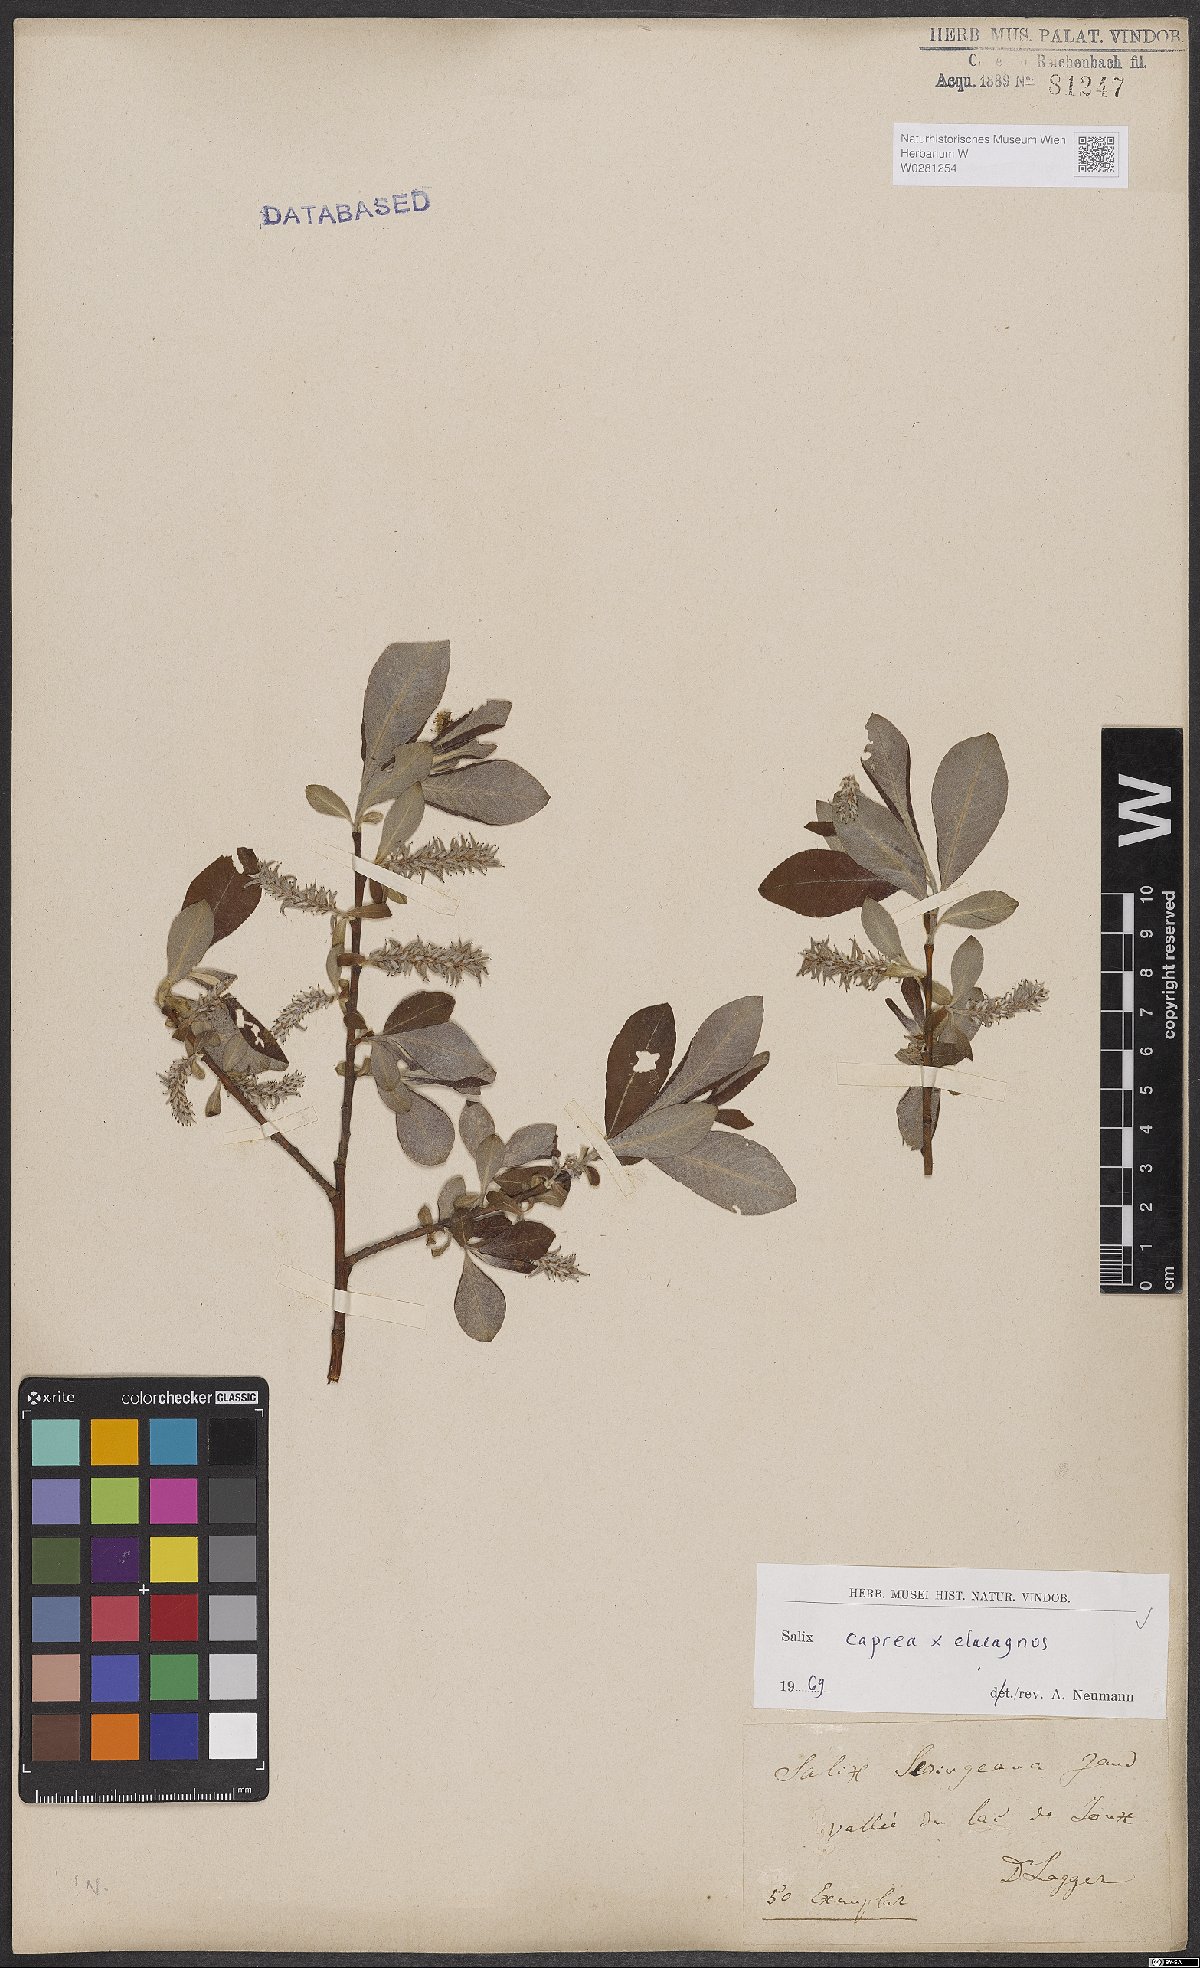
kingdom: Plantae
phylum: Tracheophyta
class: Magnoliopsida
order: Malpighiales
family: Salicaceae
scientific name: Salicaceae
